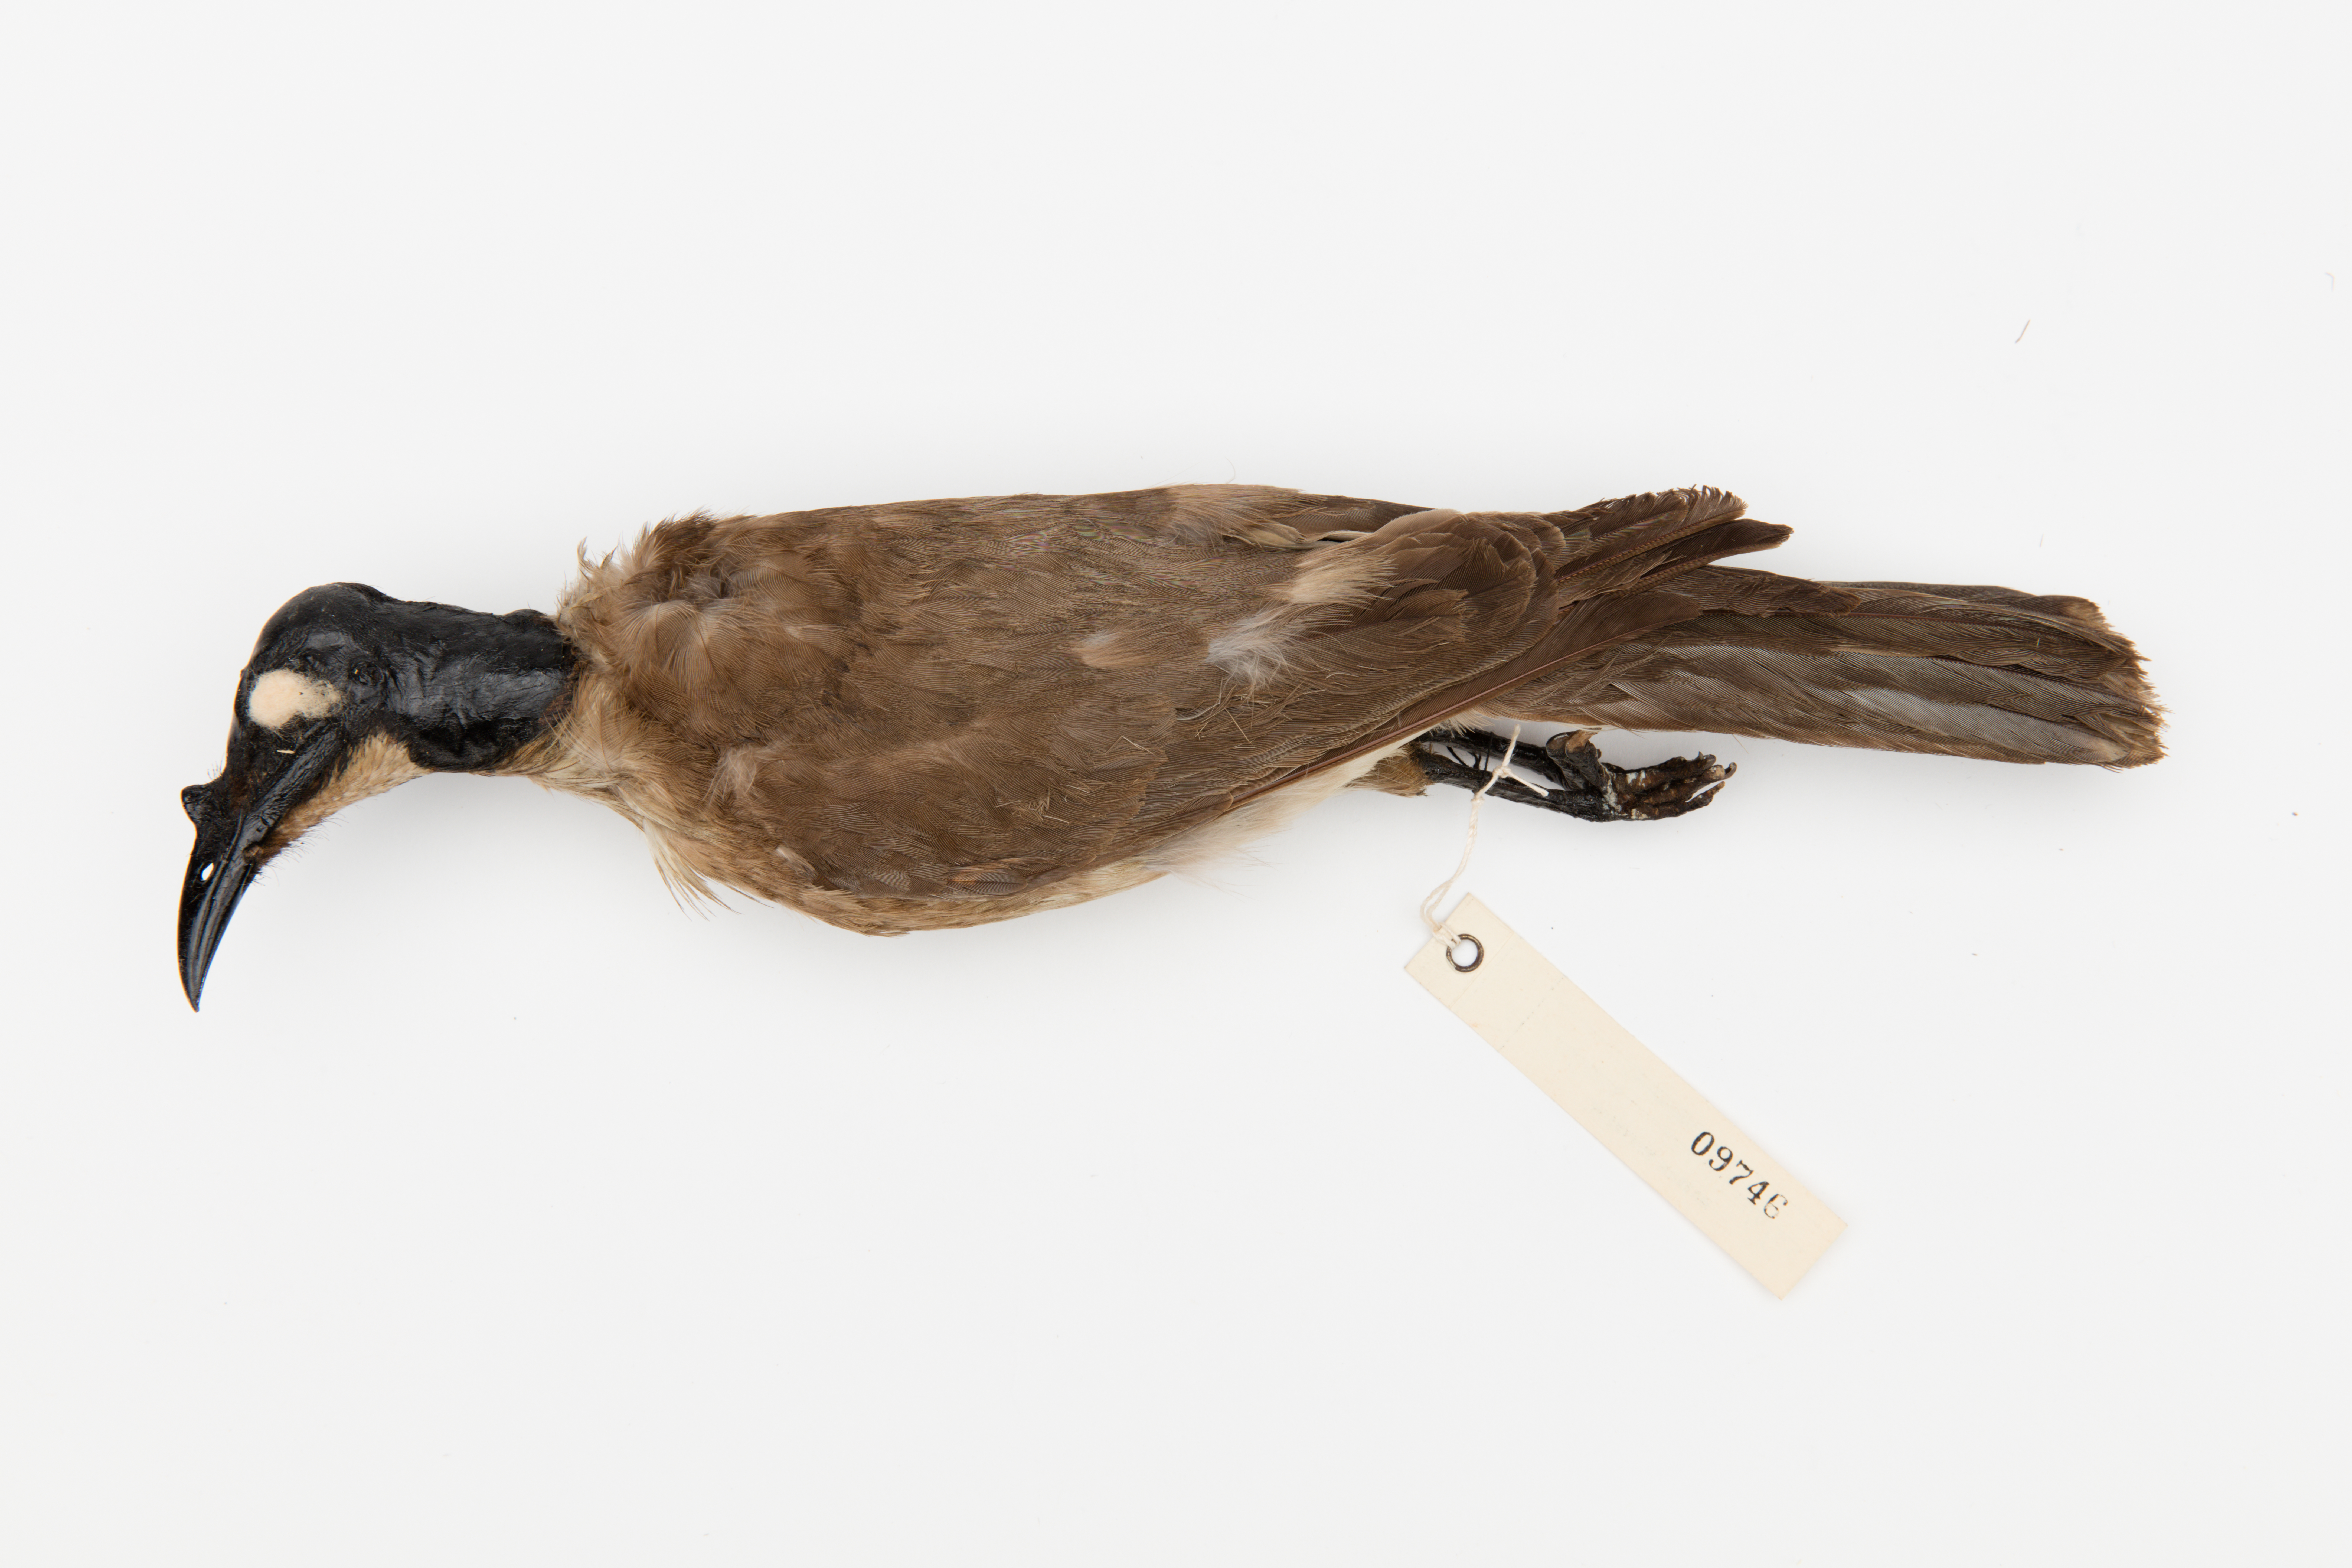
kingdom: Animalia
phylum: Chordata
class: Aves
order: Passeriformes
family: Meliphagidae
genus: Philemon
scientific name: Philemon corniculatus
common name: Noisy friarbird
